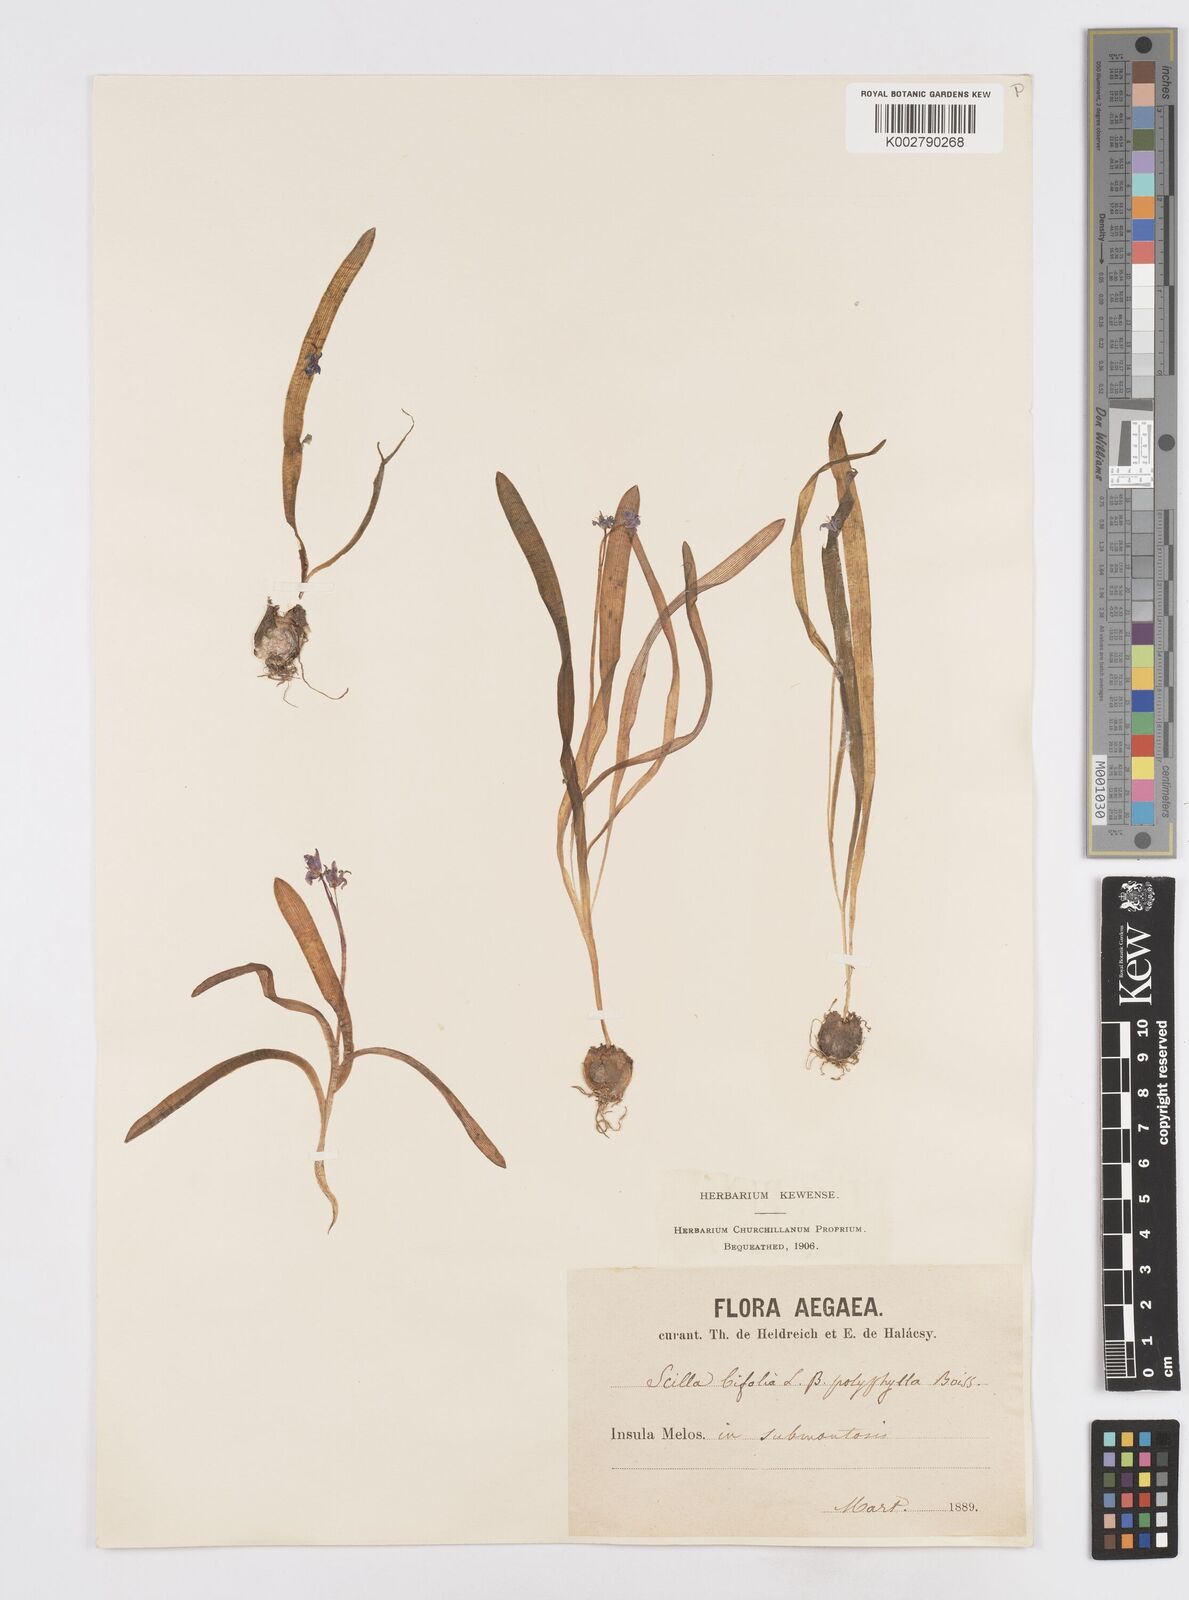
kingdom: Plantae
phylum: Tracheophyta
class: Liliopsida
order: Asparagales
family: Asparagaceae
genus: Scilla
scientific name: Scilla bifolia
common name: Alpine squill
